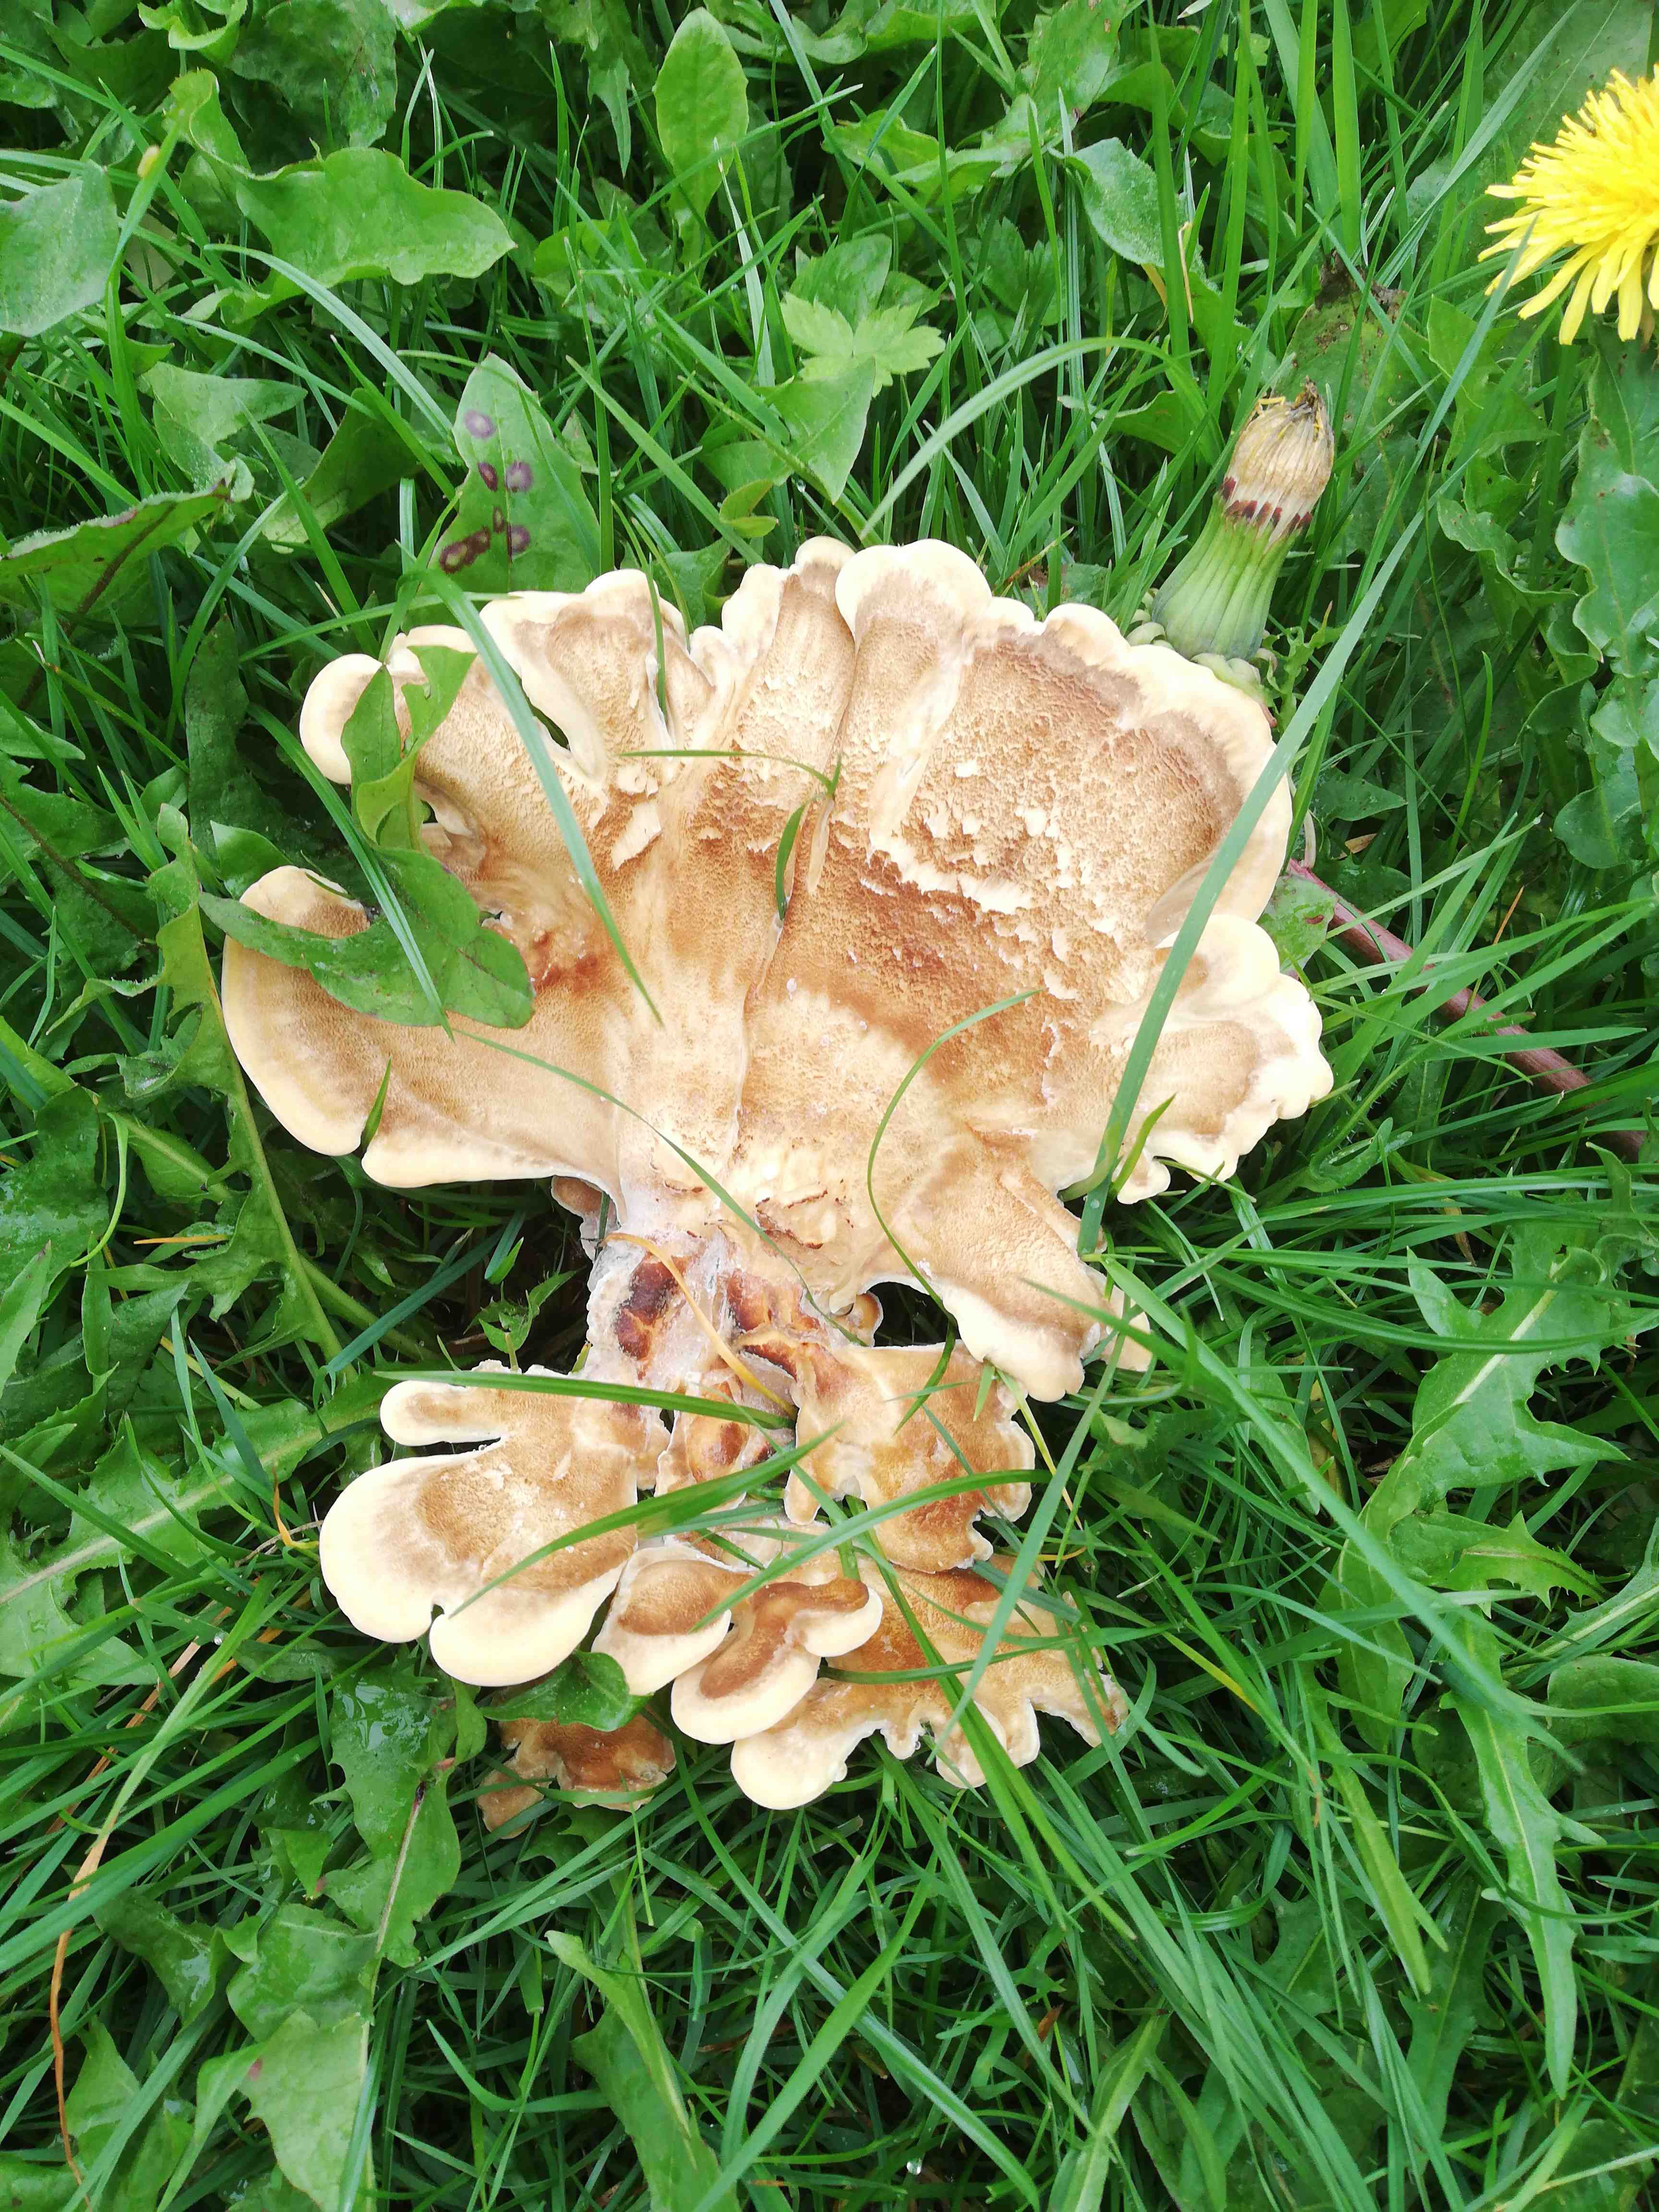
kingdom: Fungi
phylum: Basidiomycota
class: Agaricomycetes
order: Polyporales
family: Meripilaceae
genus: Meripilus
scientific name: Meripilus giganteus
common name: kæmpeporesvamp
